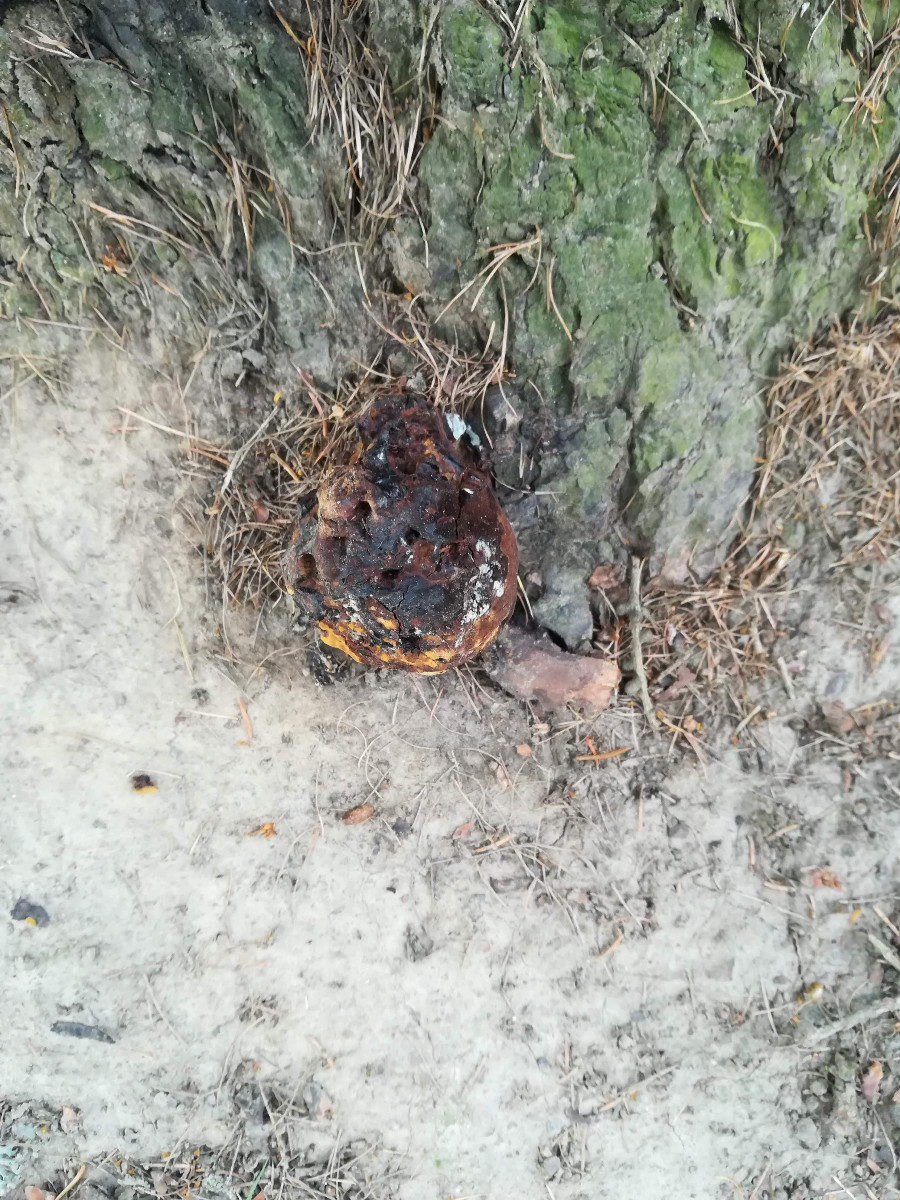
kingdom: Fungi
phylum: Basidiomycota
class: Agaricomycetes
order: Polyporales
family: Laetiporaceae
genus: Phaeolus
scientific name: Phaeolus schweinitzii
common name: brunporesvamp
